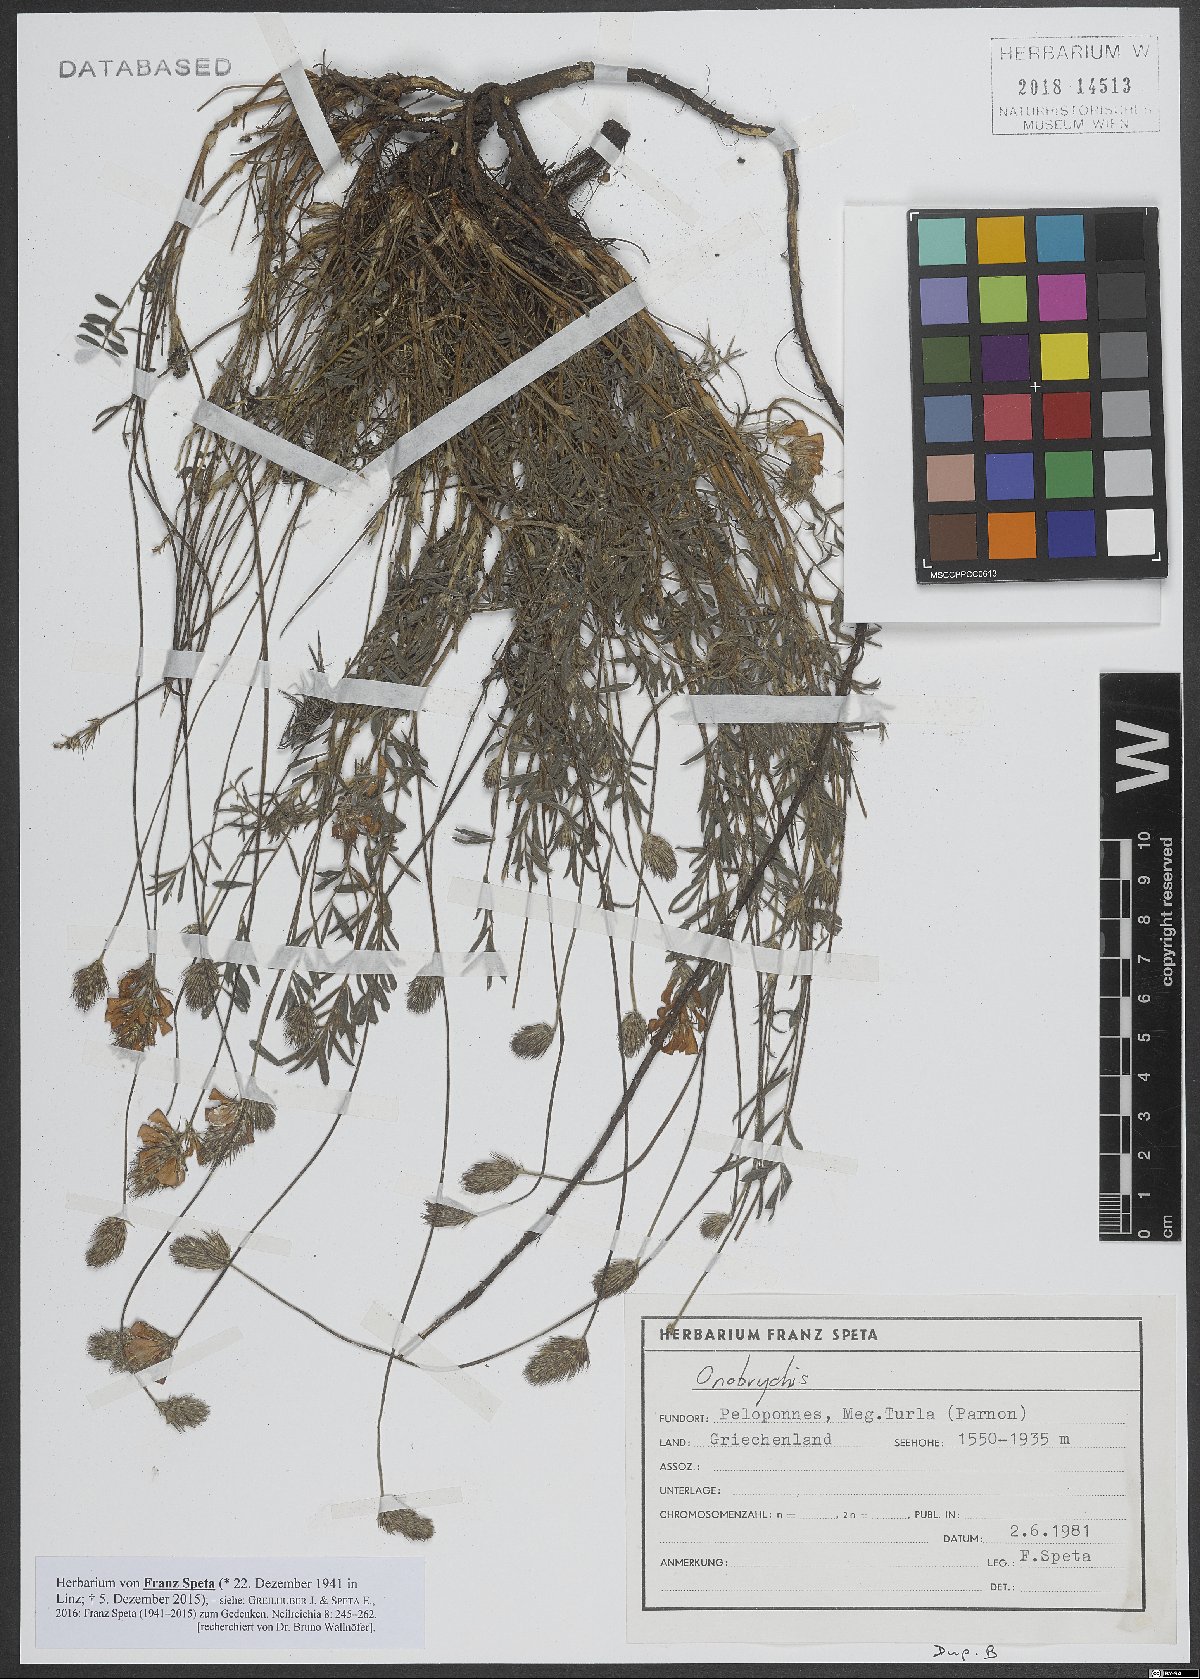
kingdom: Plantae
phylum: Tracheophyta
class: Magnoliopsida
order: Fabales
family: Fabaceae
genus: Onobrychis
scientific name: Onobrychis
